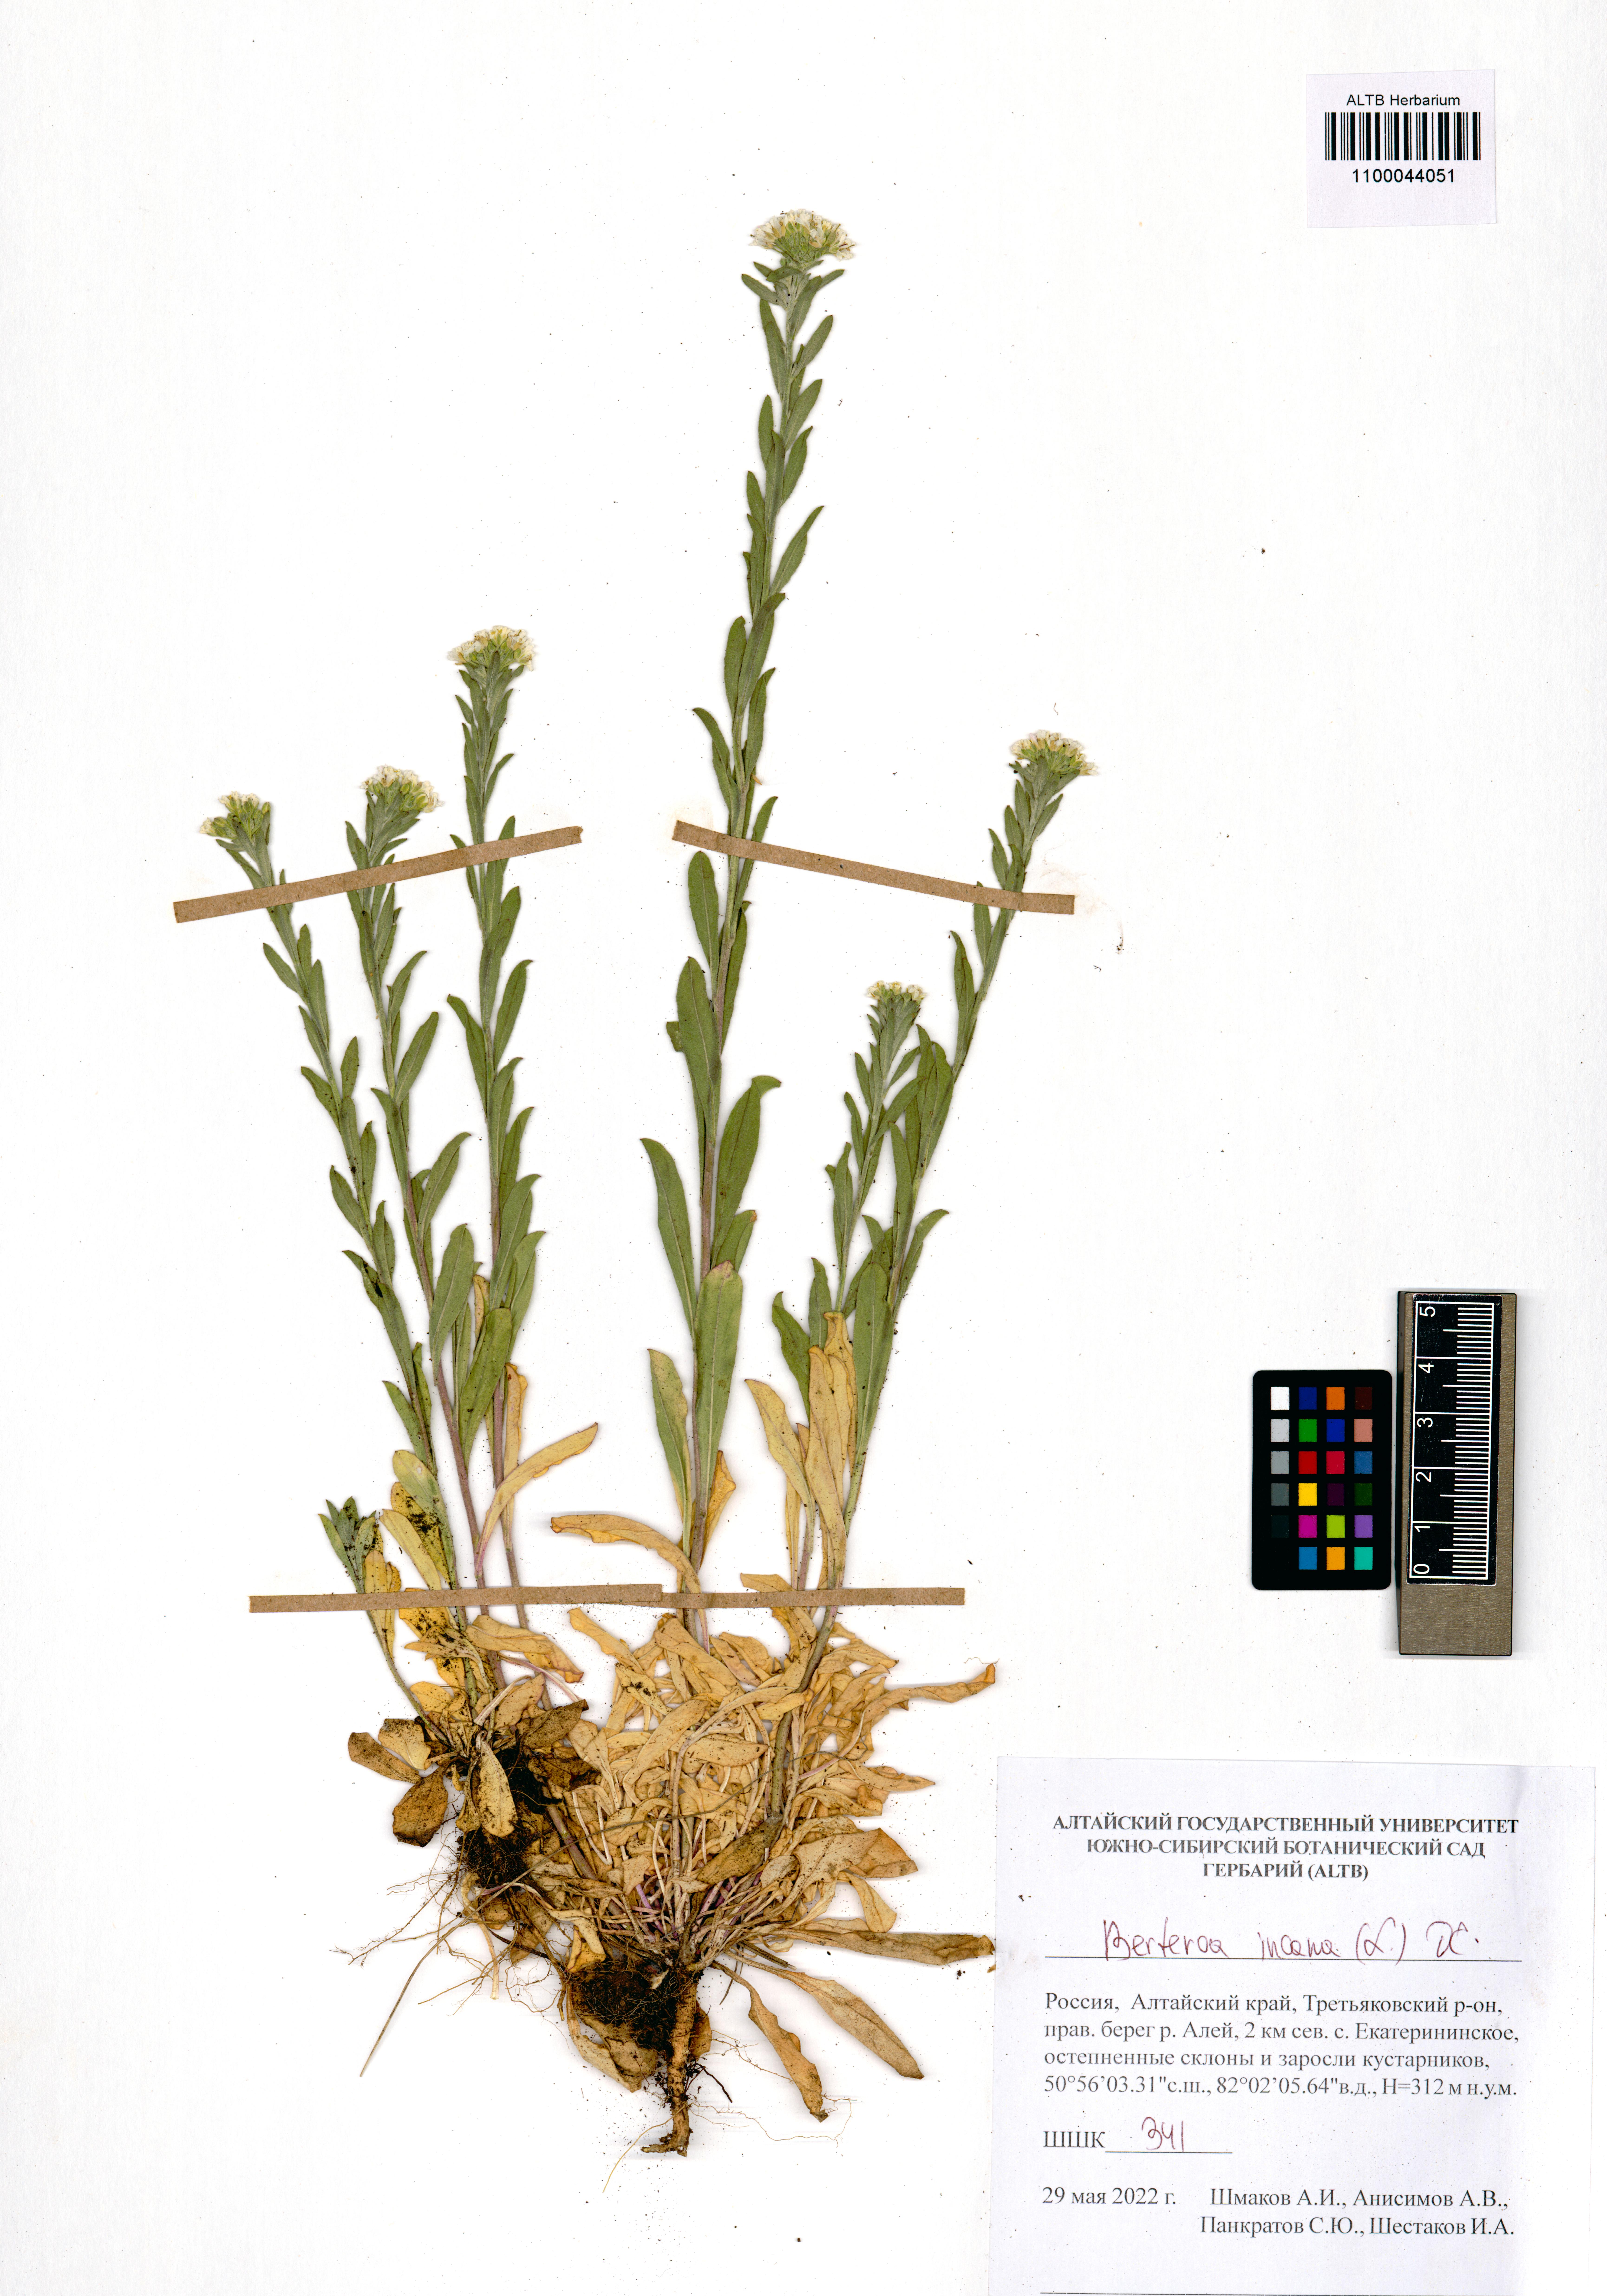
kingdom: Plantae
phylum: Tracheophyta
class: Magnoliopsida
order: Brassicales
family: Brassicaceae
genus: Berteroa
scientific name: Berteroa incana
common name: Hoary alison
